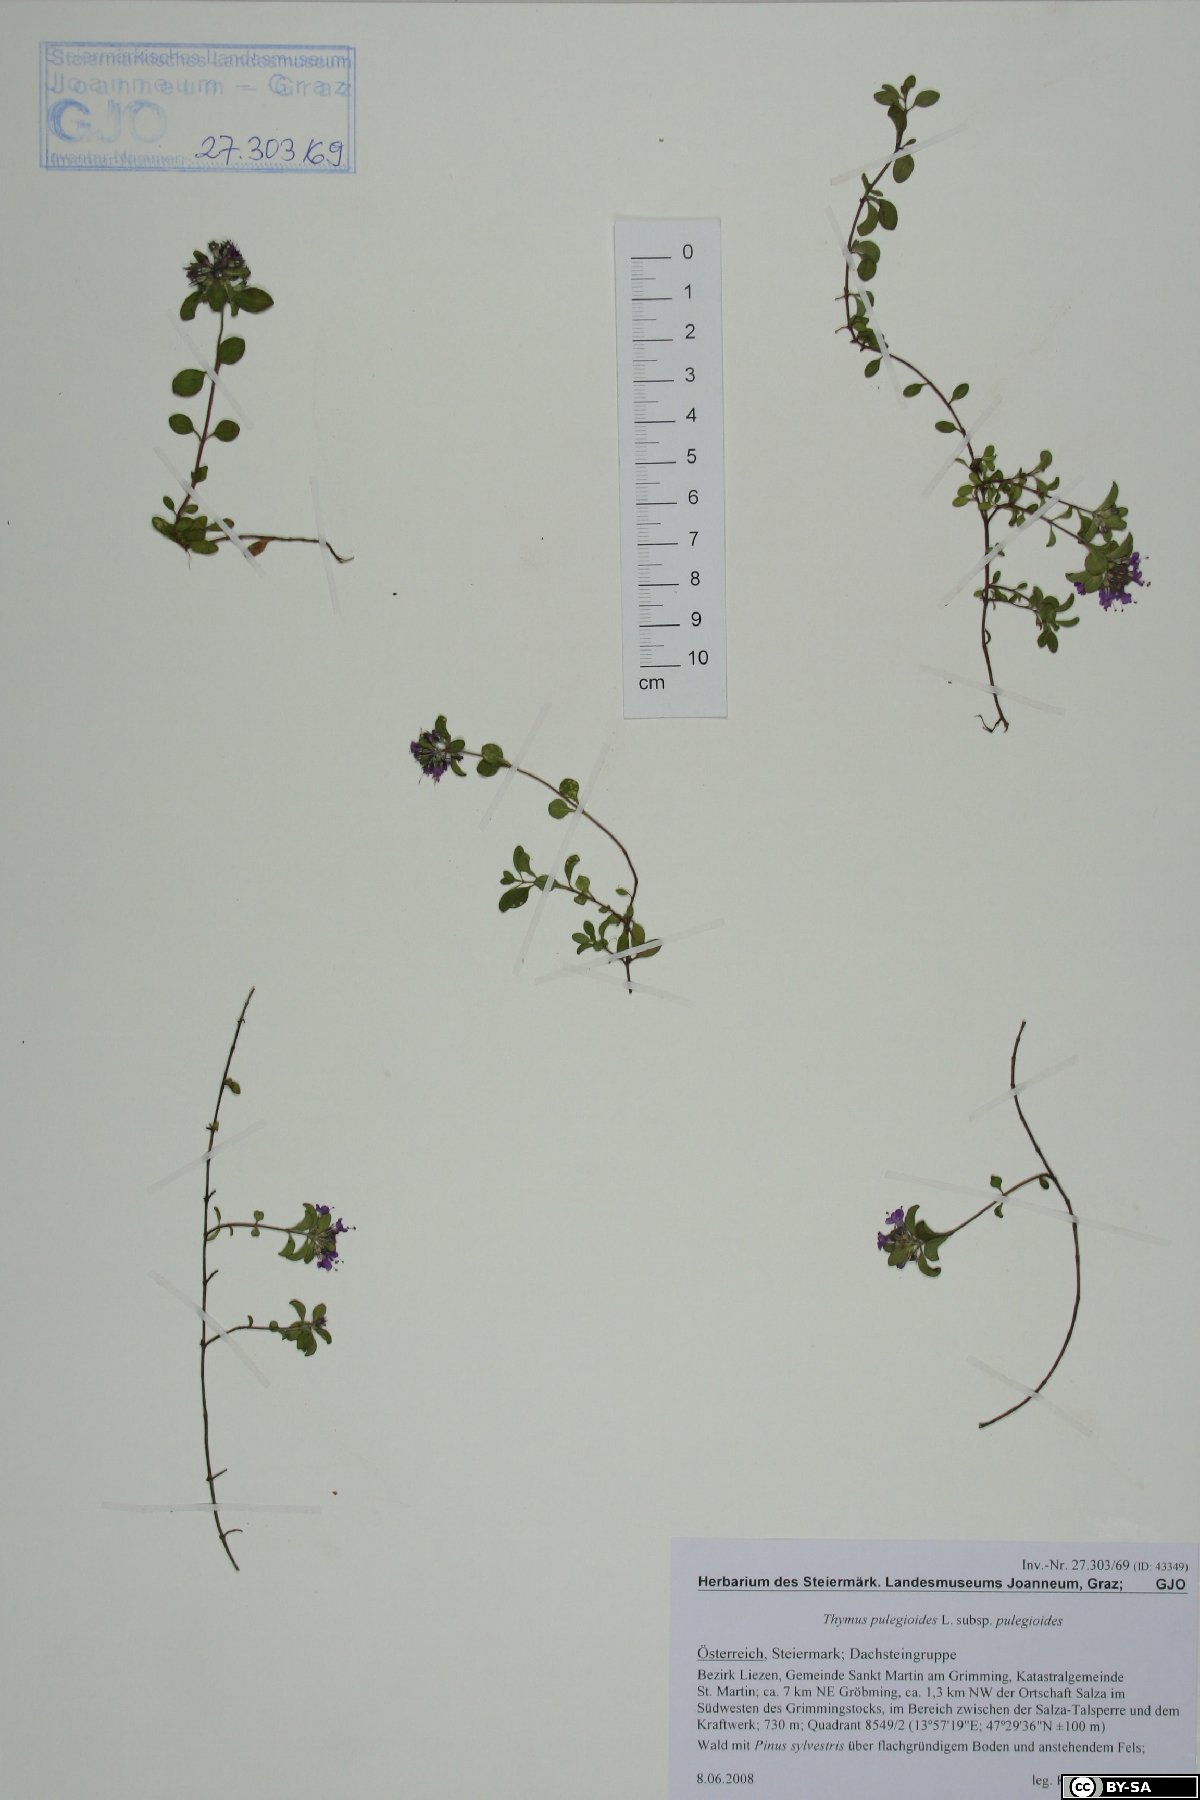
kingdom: Plantae
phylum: Tracheophyta
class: Magnoliopsida
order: Lamiales
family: Lamiaceae
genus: Thymus
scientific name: Thymus pulegioides
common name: Large thyme
